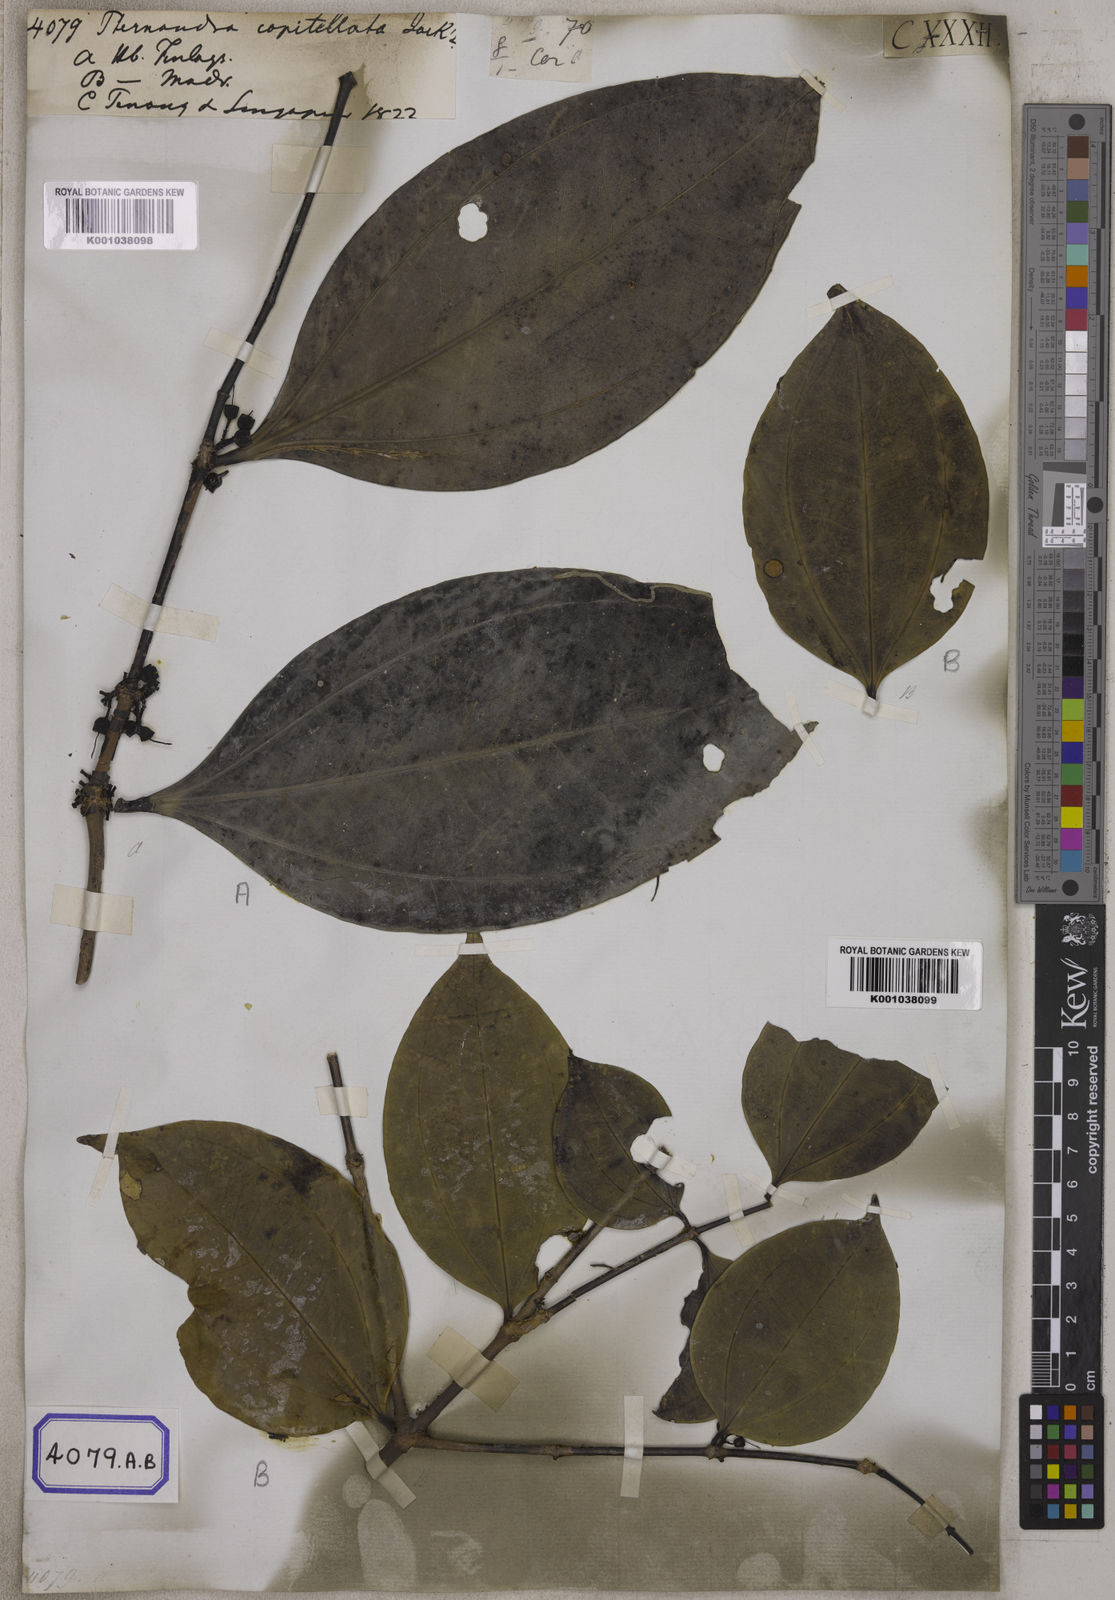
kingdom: Plantae
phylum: Tracheophyta
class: Magnoliopsida
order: Myrtales
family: Melastomataceae
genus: Pternandra
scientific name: Pternandra coerulescens
